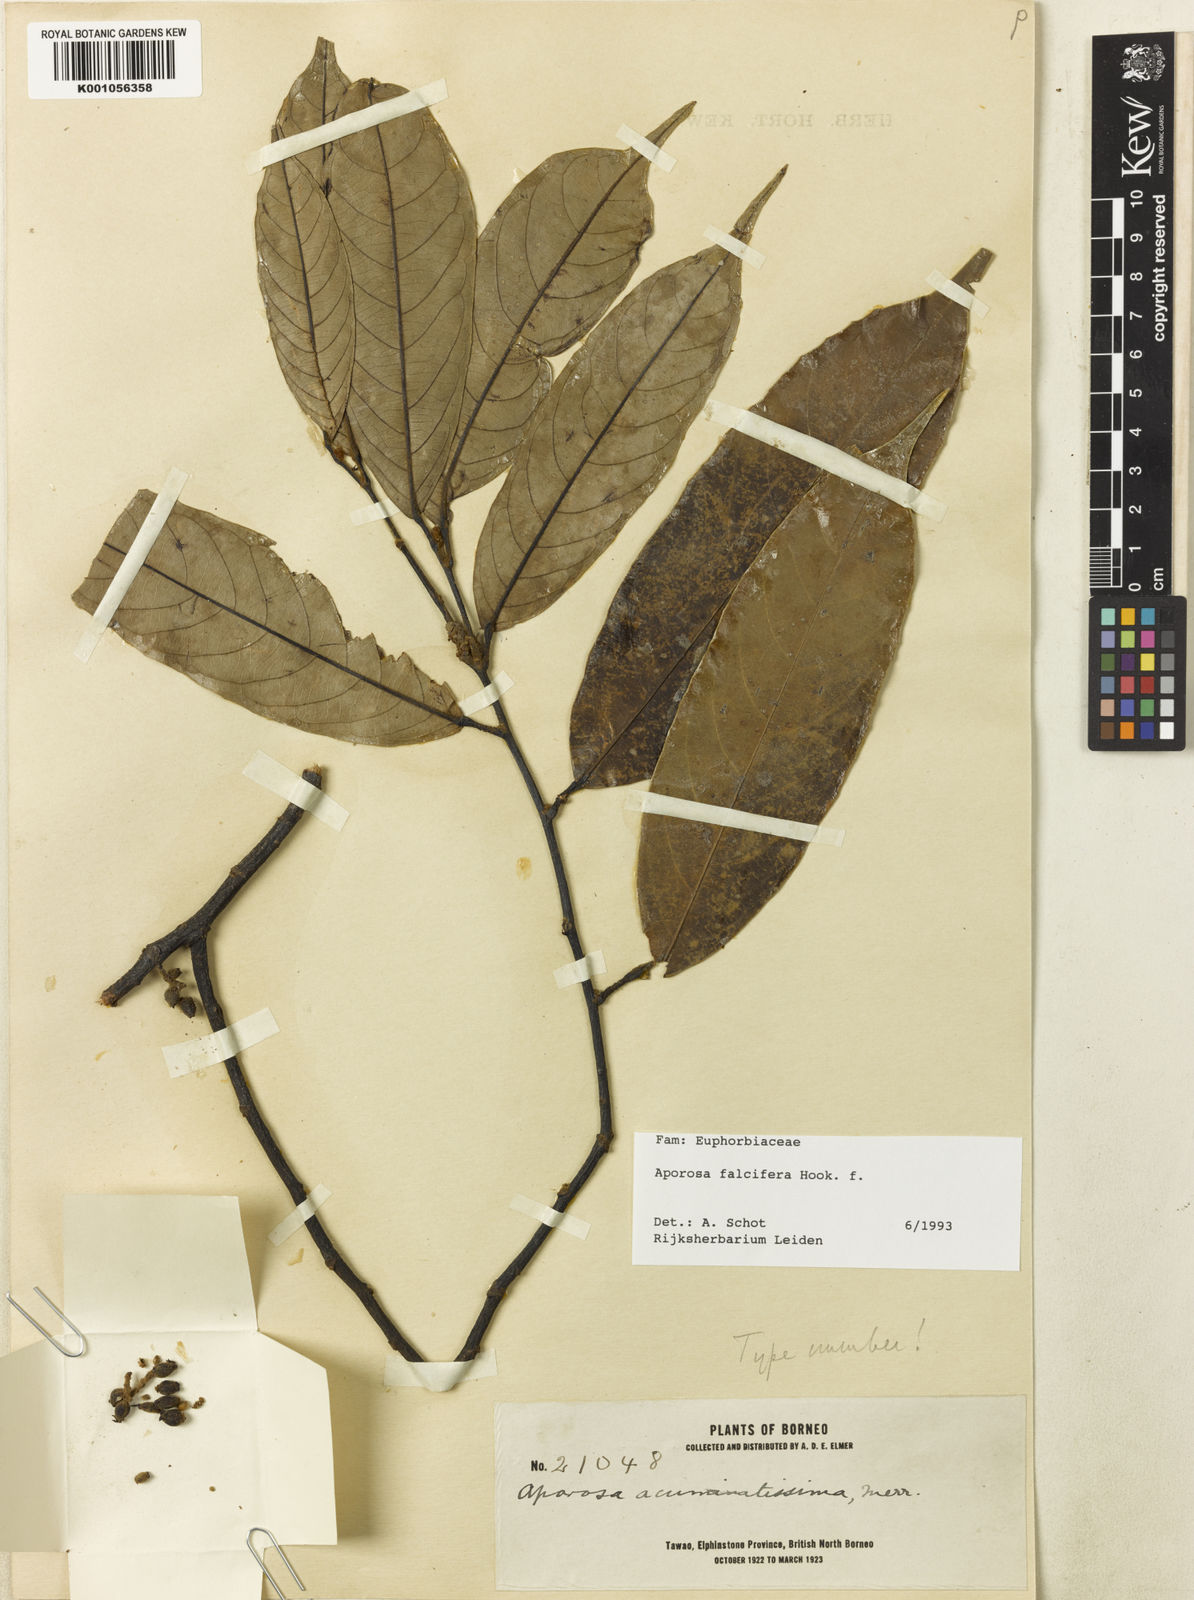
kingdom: Plantae
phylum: Tracheophyta
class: Magnoliopsida
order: Malpighiales
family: Phyllanthaceae
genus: Aporosa
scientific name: Aporosa falcifera
